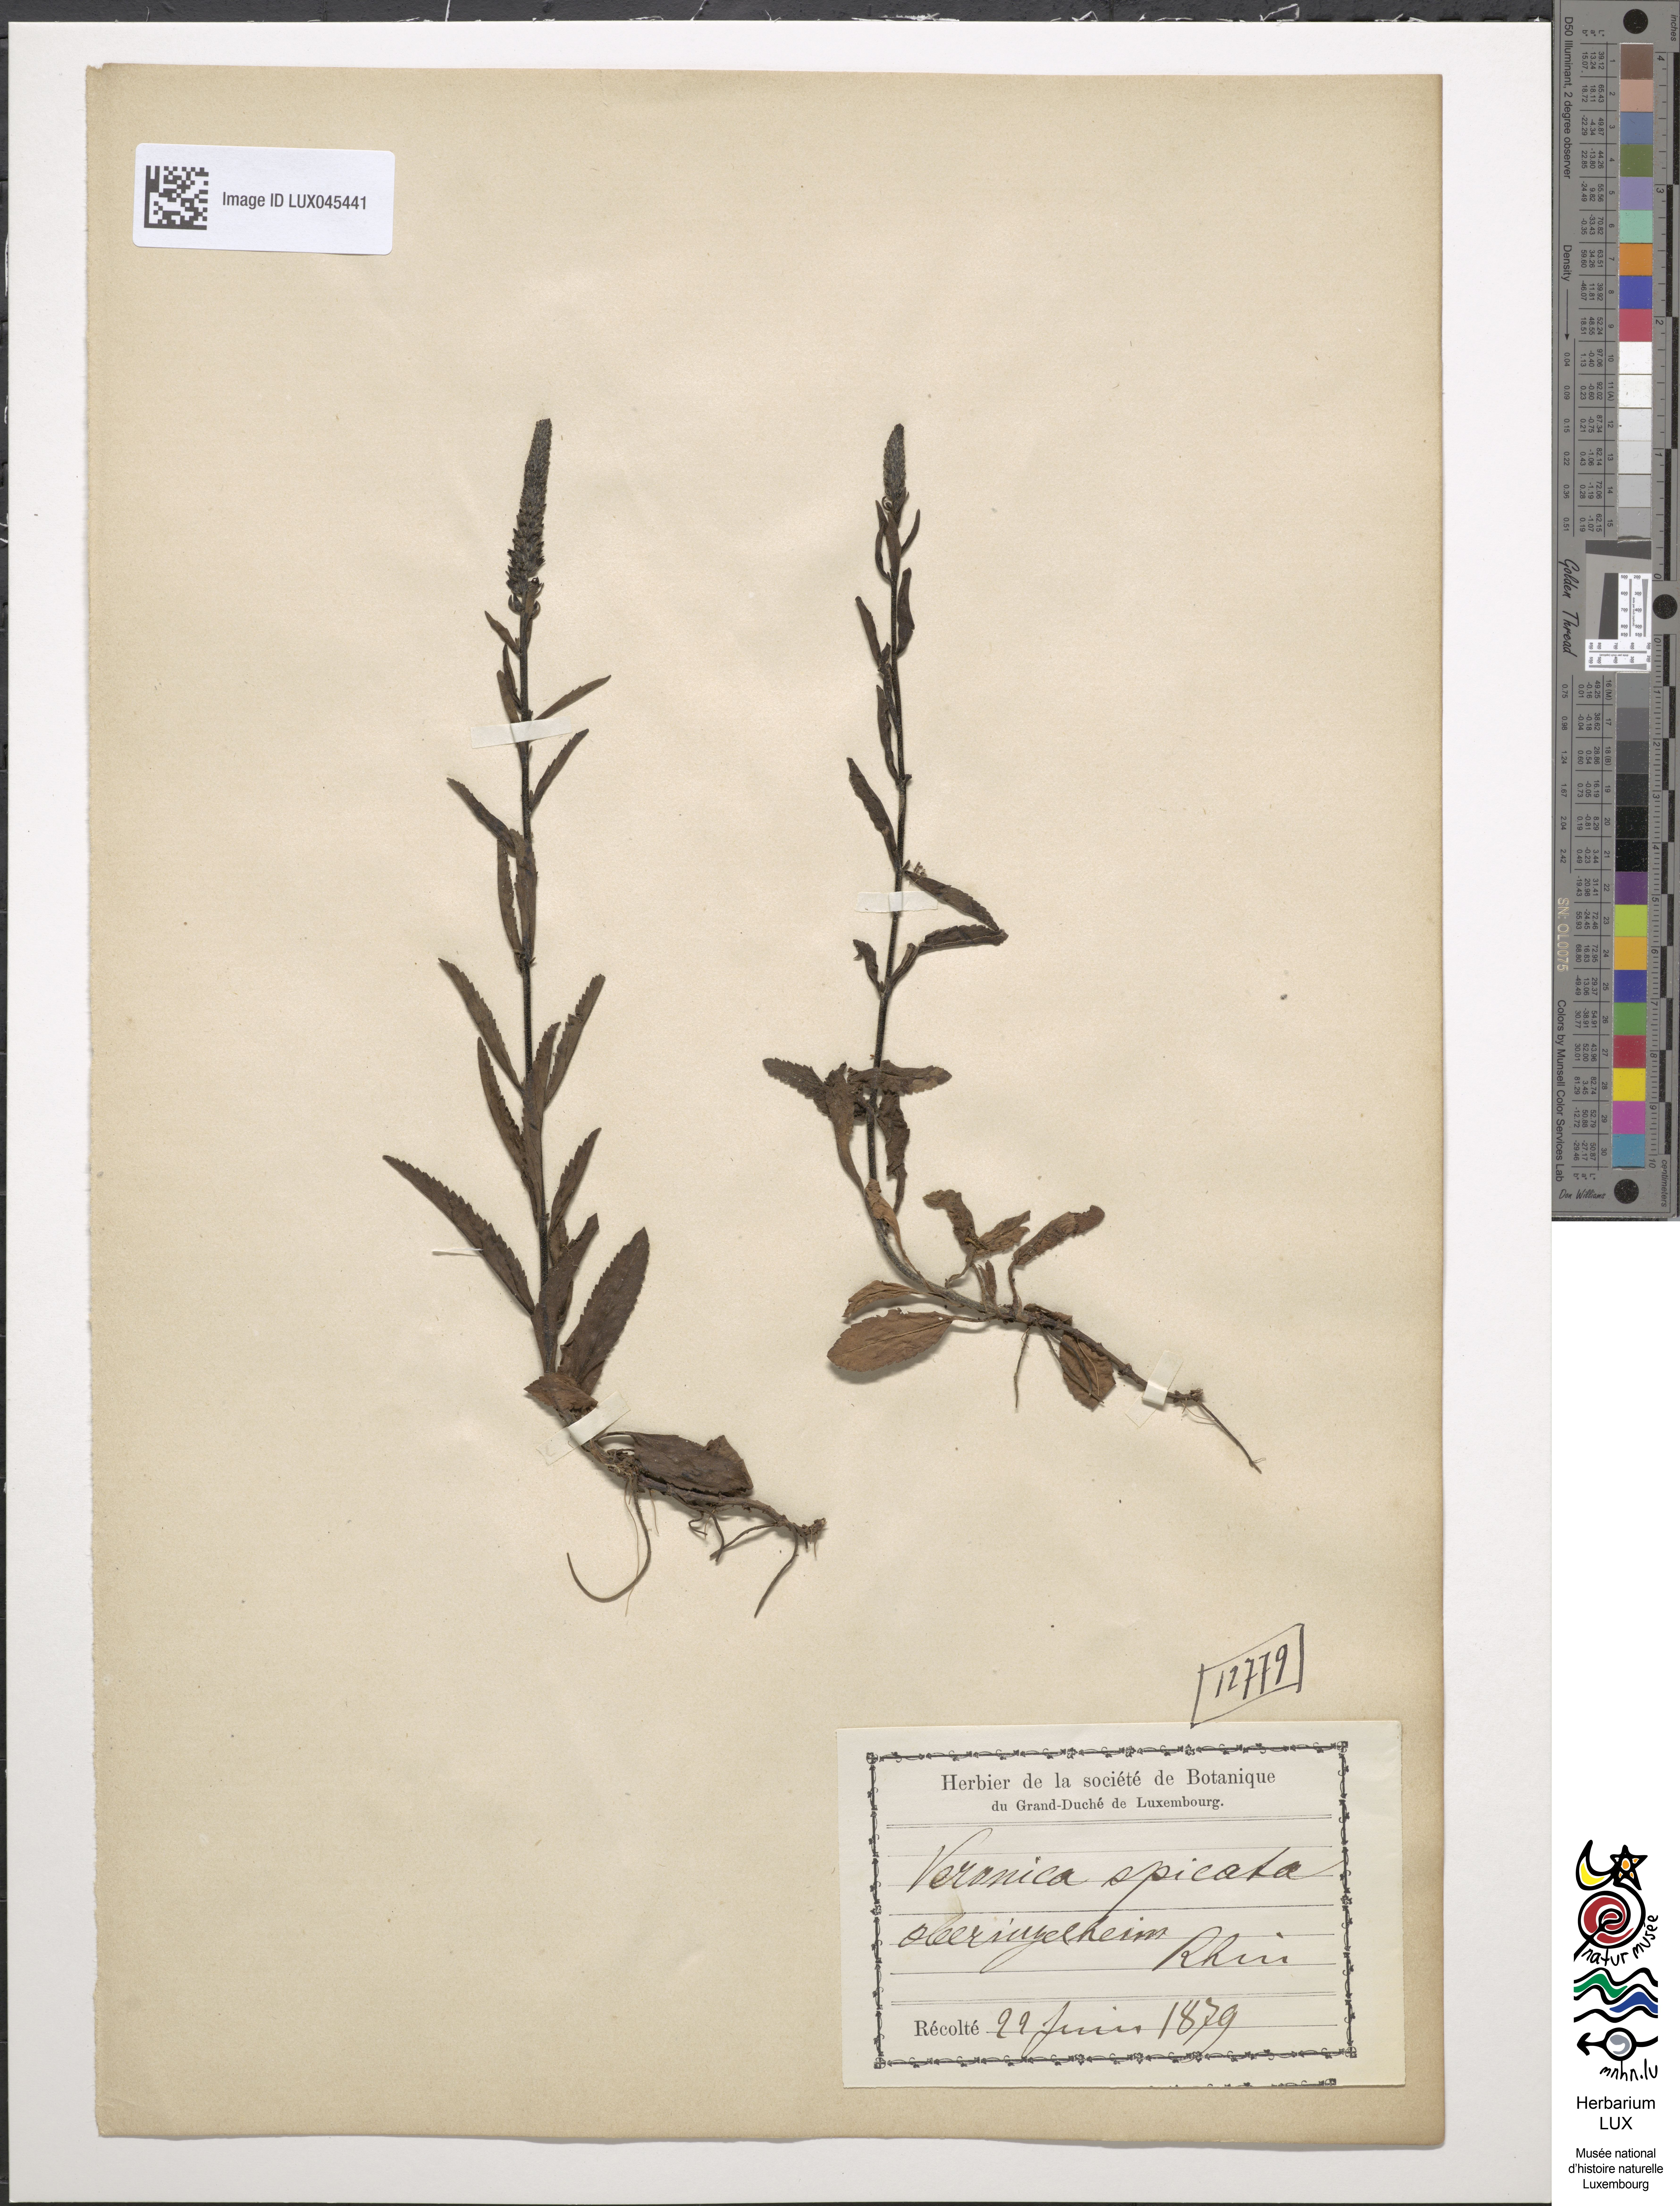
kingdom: Plantae
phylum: Tracheophyta
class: Magnoliopsida
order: Lamiales
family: Plantaginaceae
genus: Veronica
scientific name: Veronica spicata
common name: Spiked speedwell
